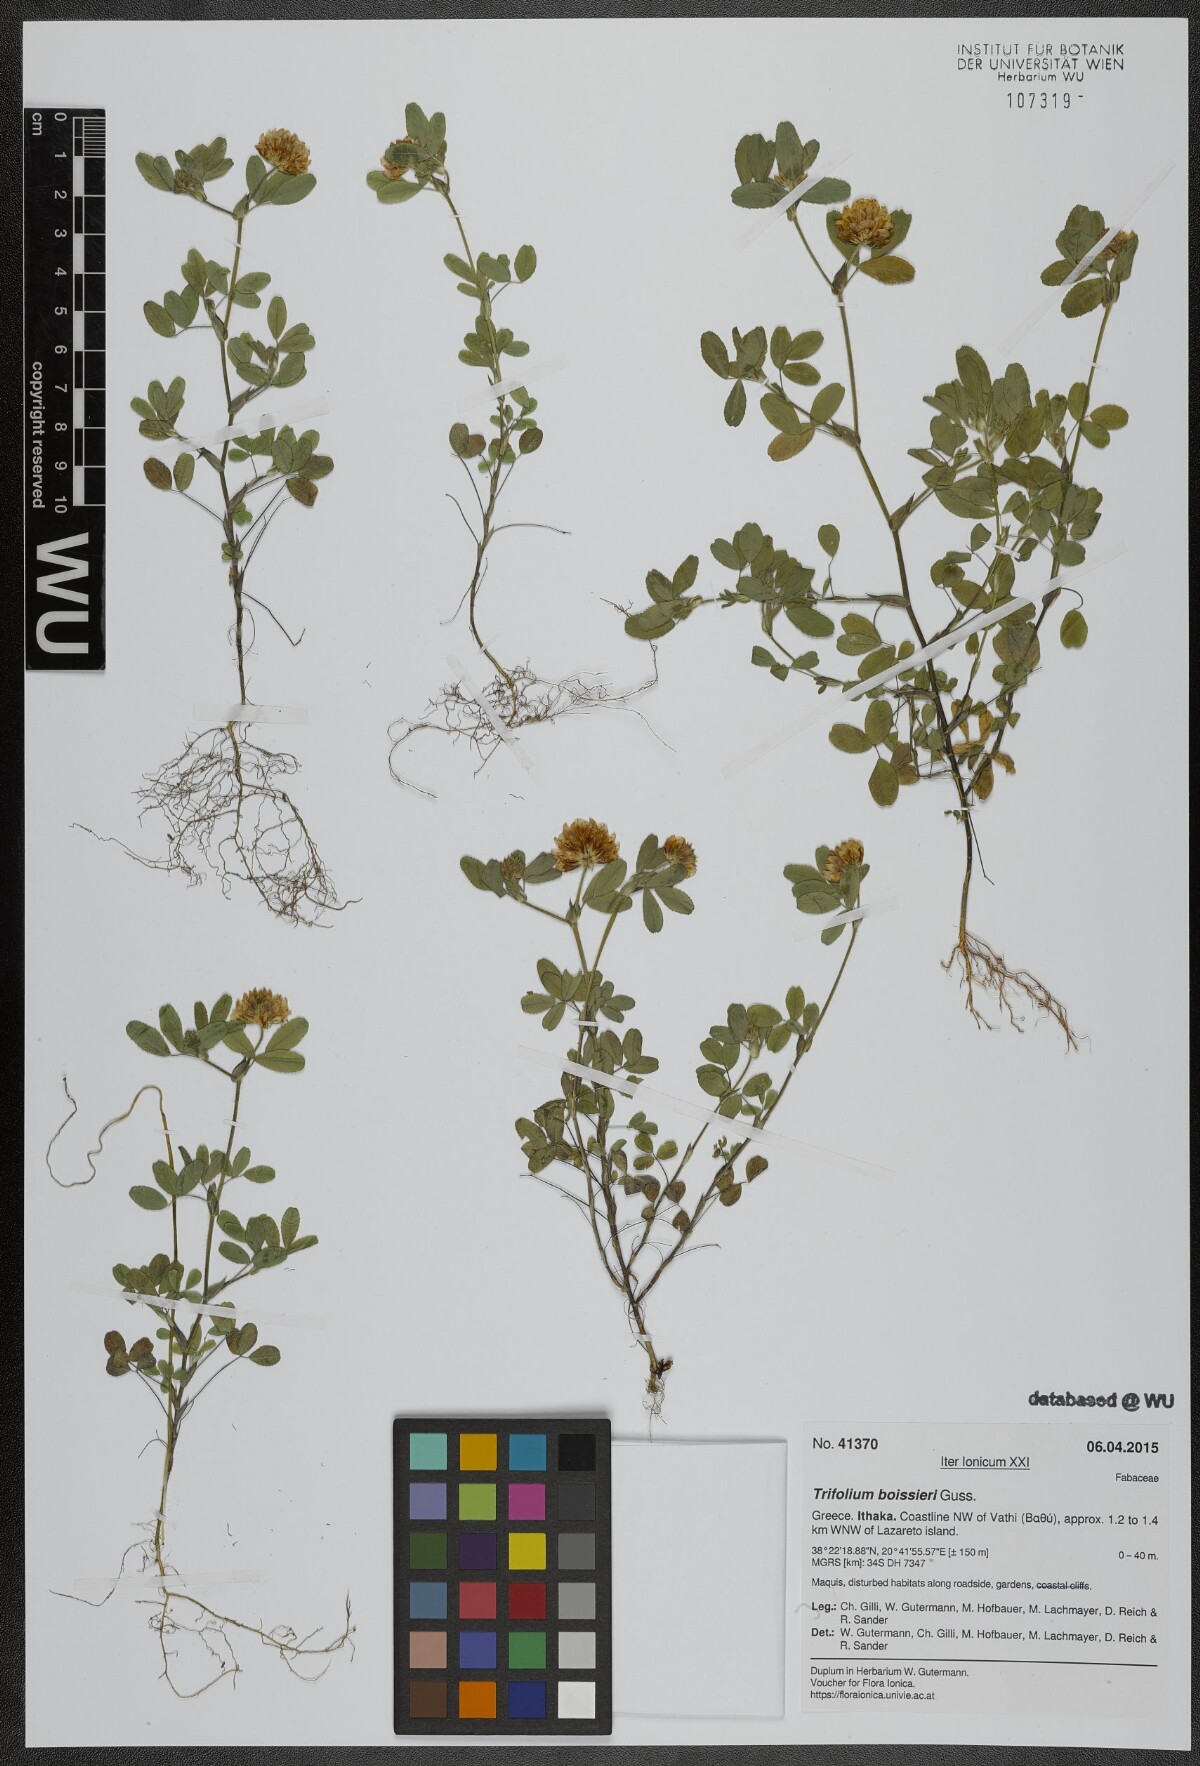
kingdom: Plantae
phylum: Tracheophyta
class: Magnoliopsida
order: Fabales
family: Fabaceae
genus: Trifolium
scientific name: Trifolium boissieri
